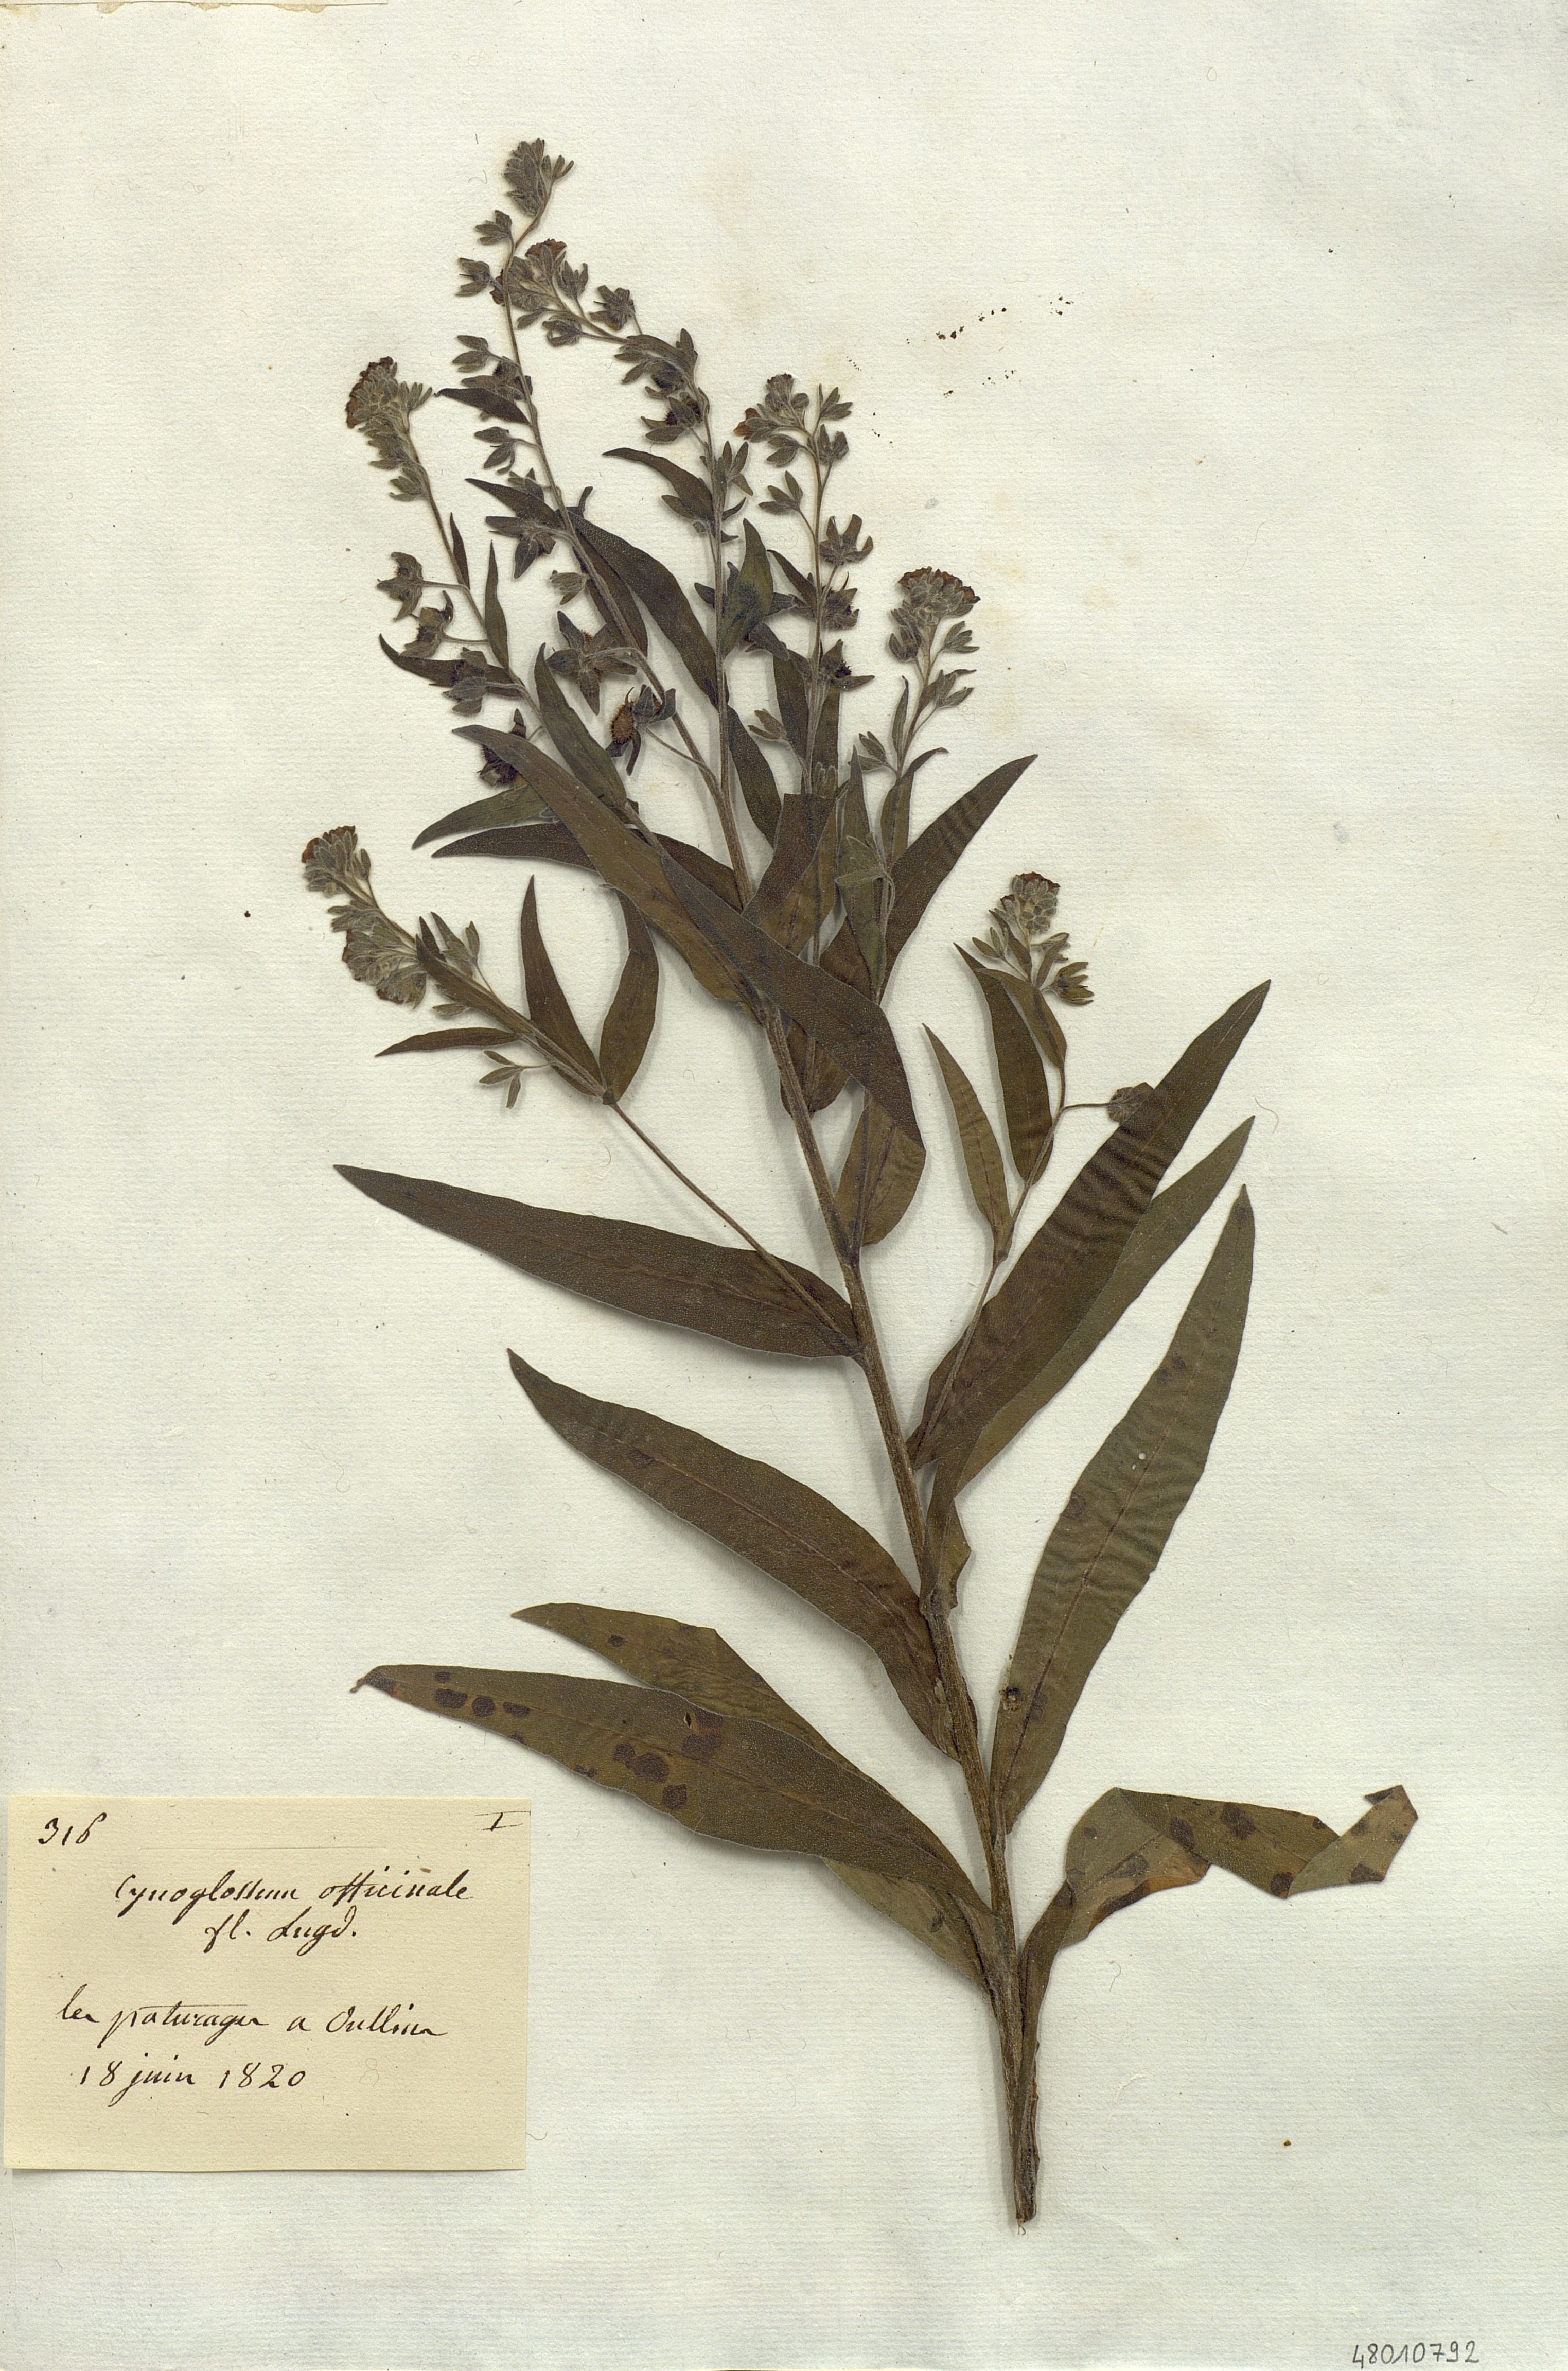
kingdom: Plantae
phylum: Tracheophyta
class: Magnoliopsida
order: Boraginales
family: Boraginaceae
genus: Cynoglossum
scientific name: Cynoglossum officinale
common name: Hound's-tongue
